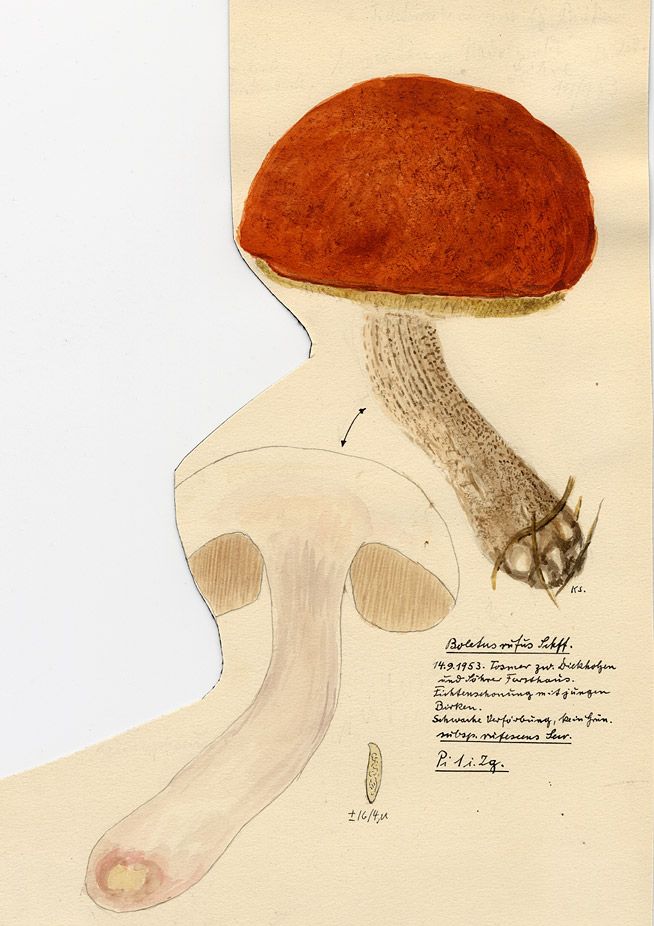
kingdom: Fungi
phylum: Basidiomycota
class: Agaricomycetes
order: Boletales
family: Boletaceae
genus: Leccinum
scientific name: Leccinum versipelle
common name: Orange birch bolete
